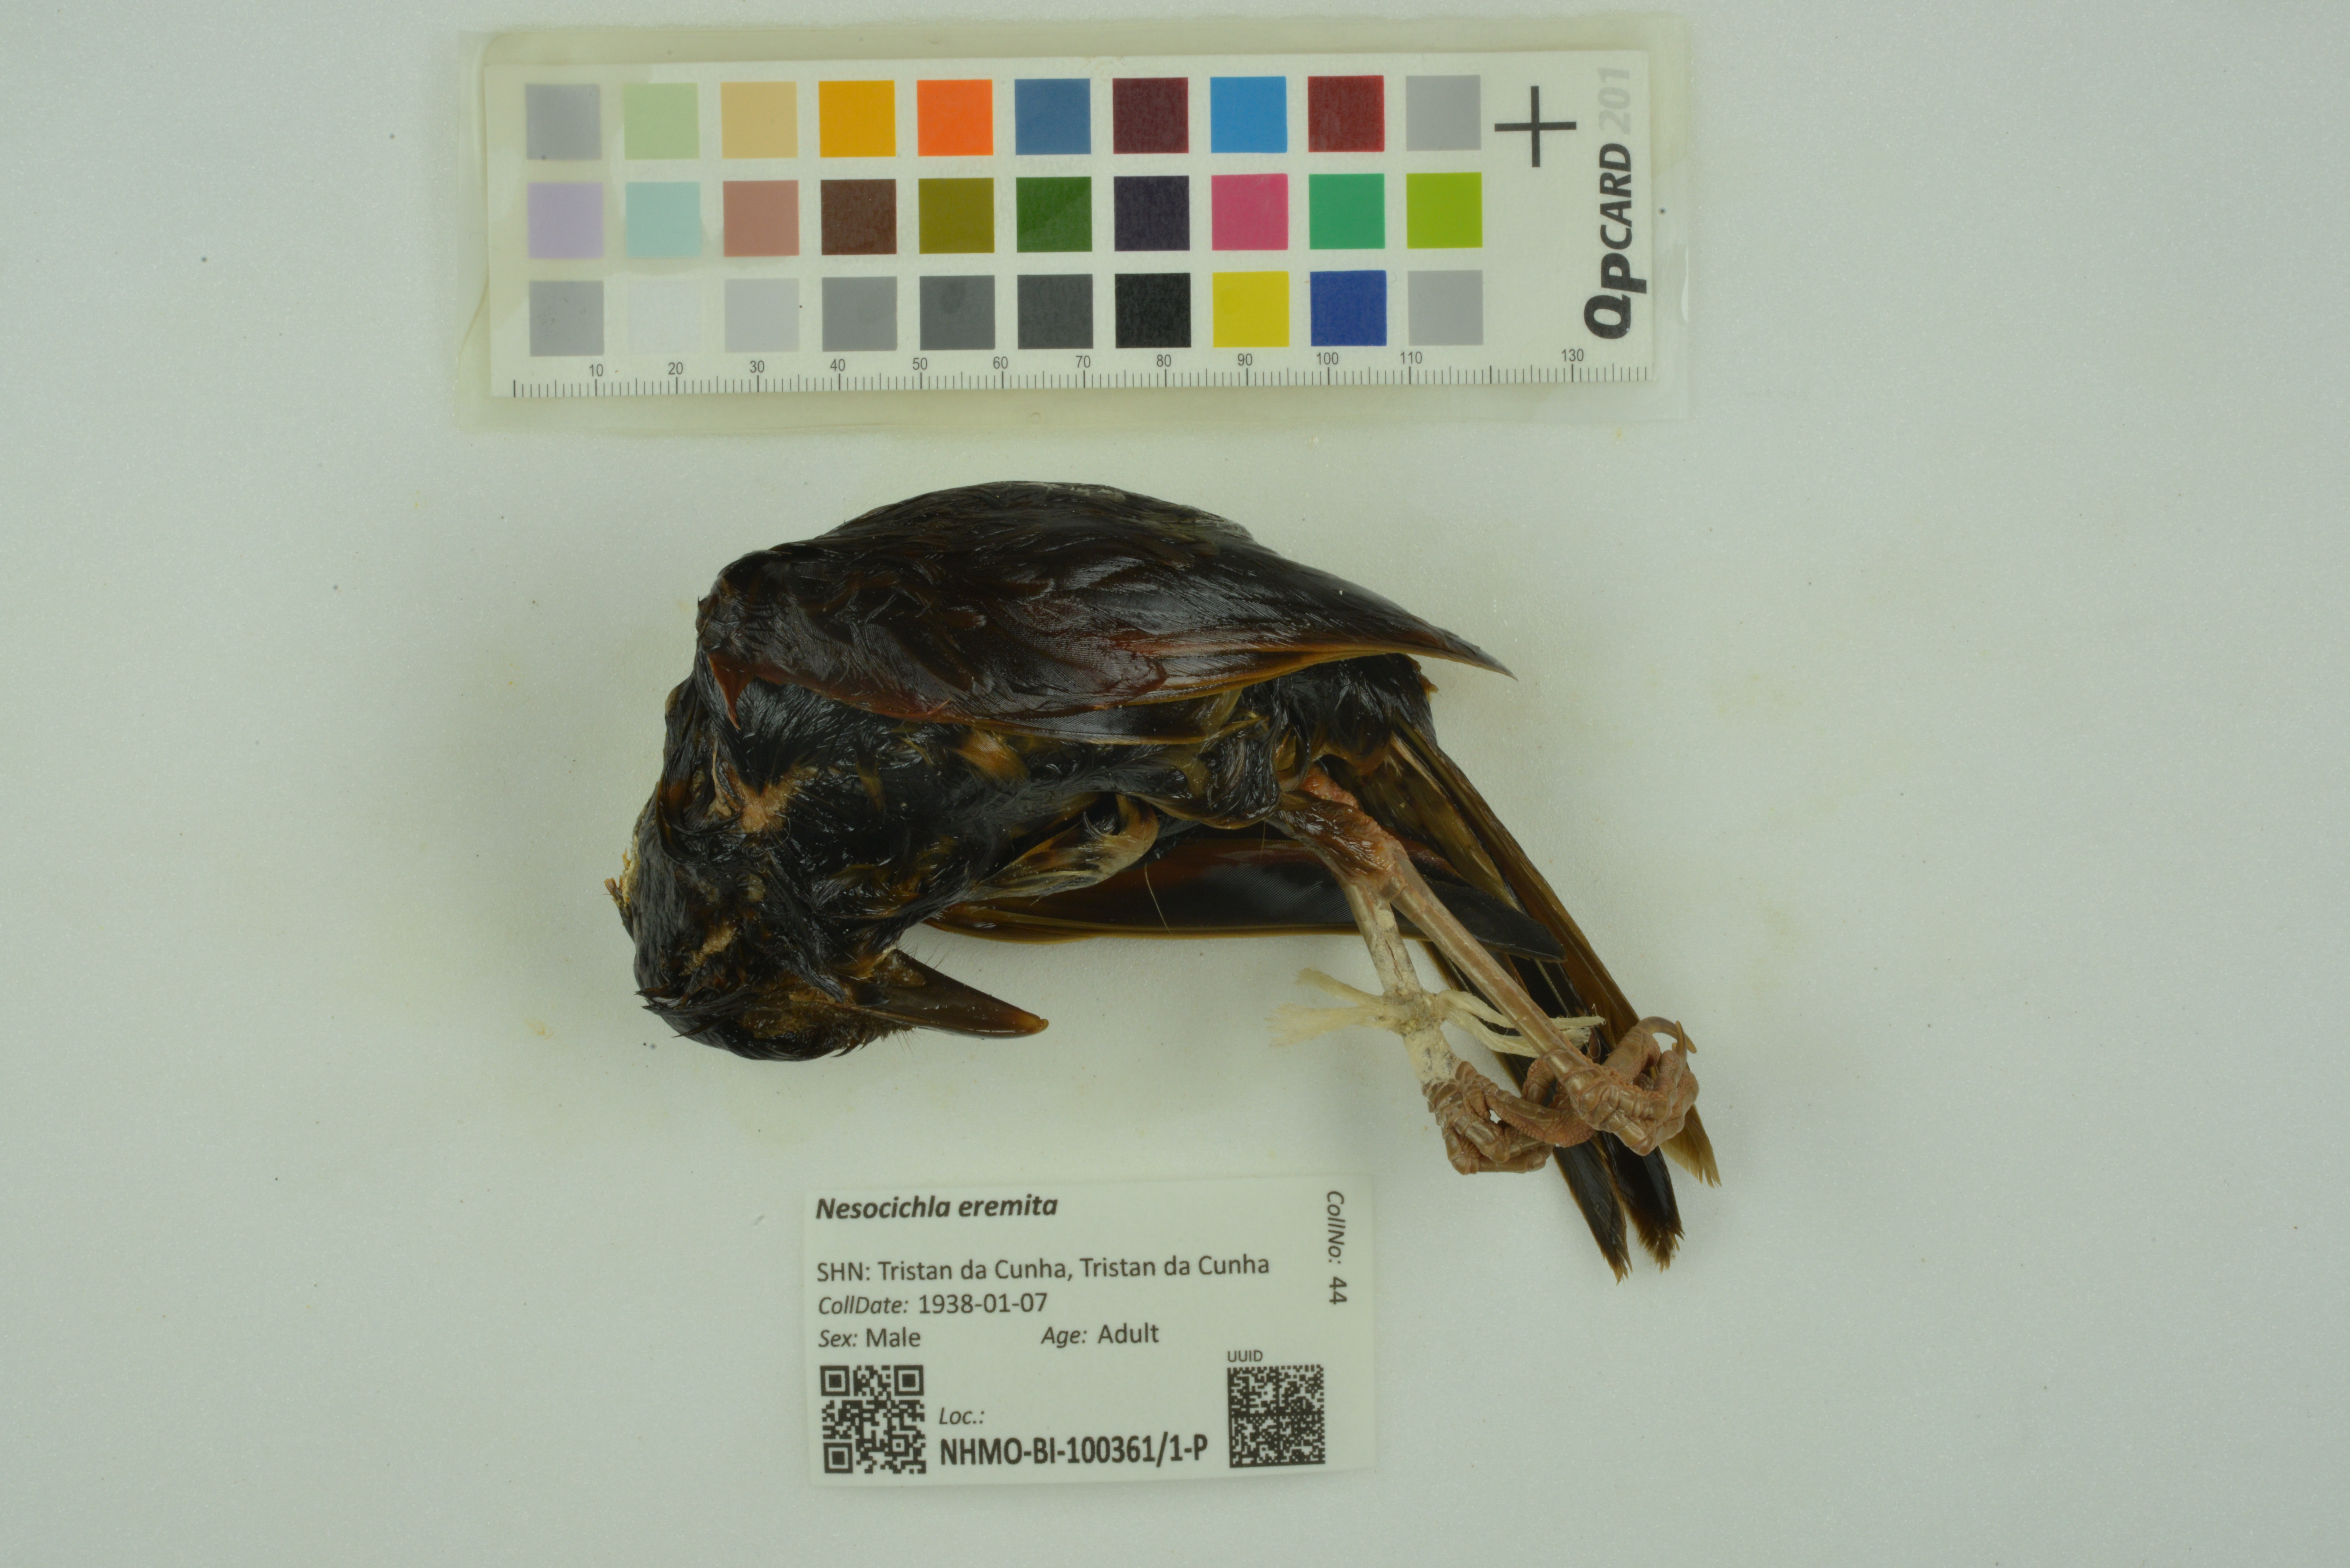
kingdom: Animalia
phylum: Chordata
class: Aves
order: Passeriformes
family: Turdidae
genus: Nesocichla
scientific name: Nesocichla eremita
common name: Tristan thrush
